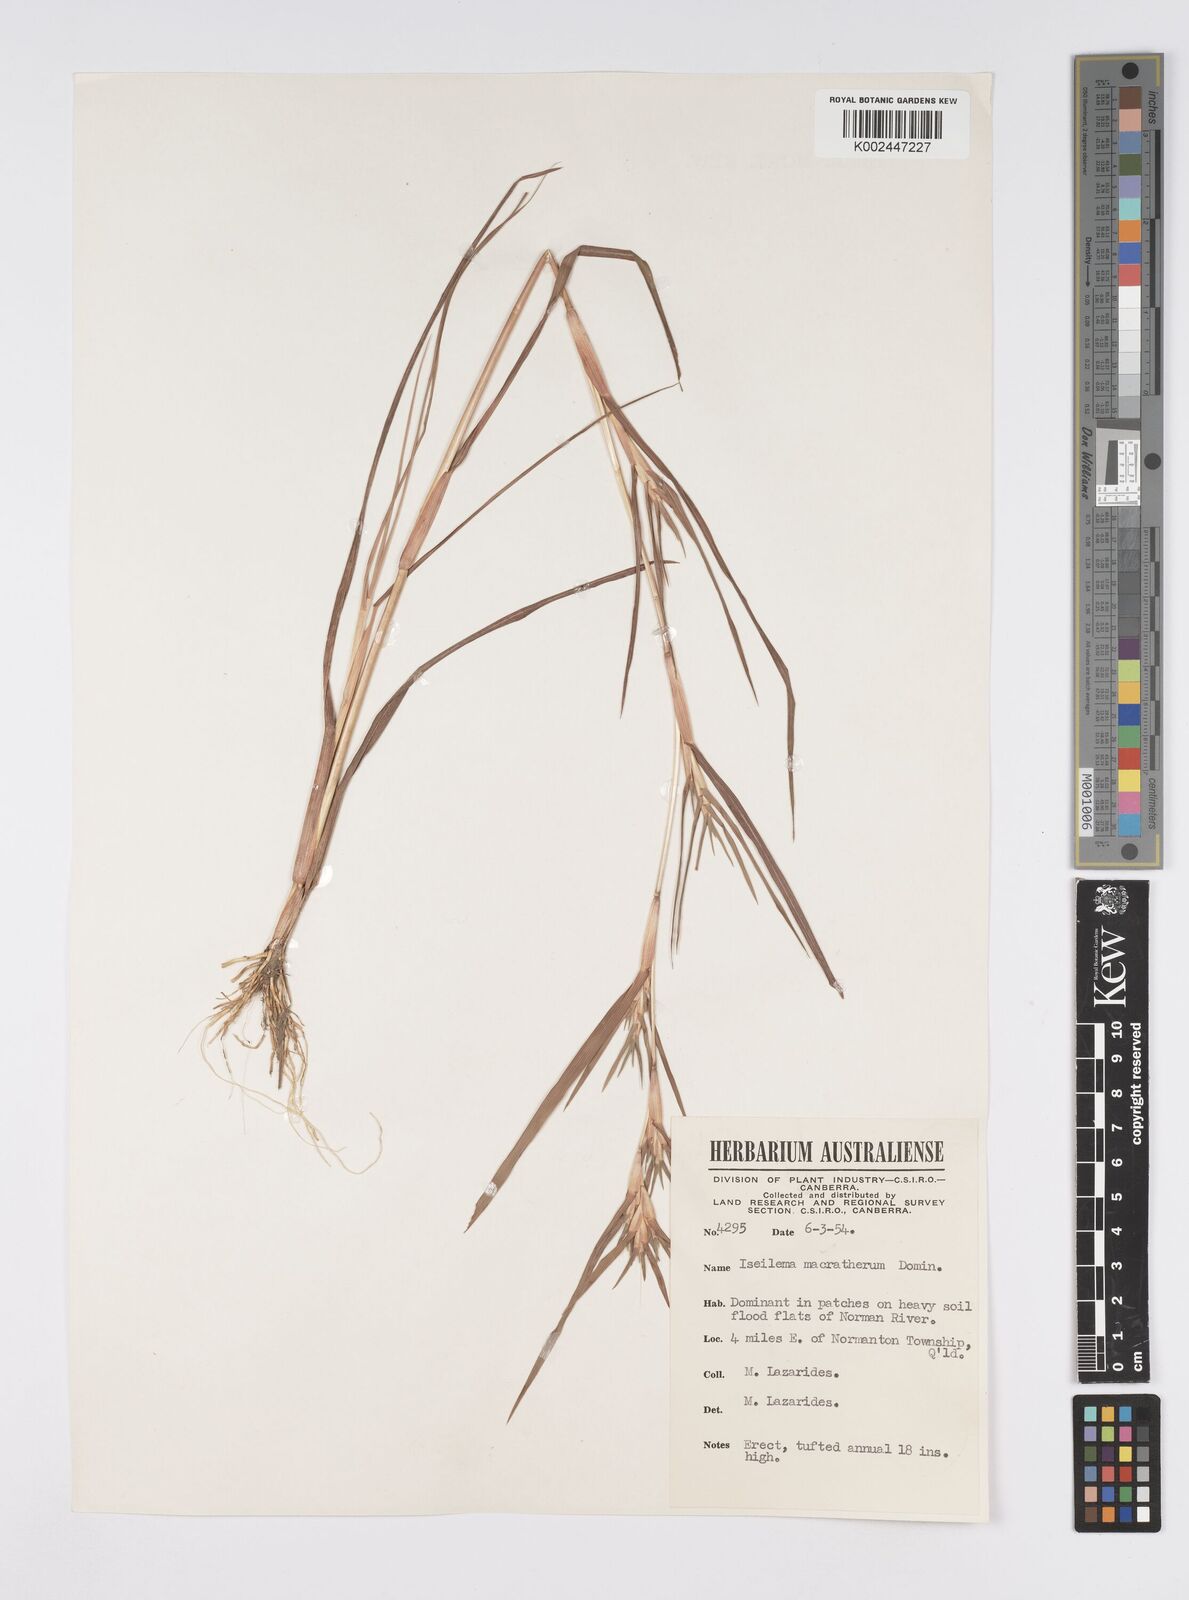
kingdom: Plantae
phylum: Tracheophyta
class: Liliopsida
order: Poales
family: Poaceae
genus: Iseilema
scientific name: Iseilema macratherum
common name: Bull flinders grass
